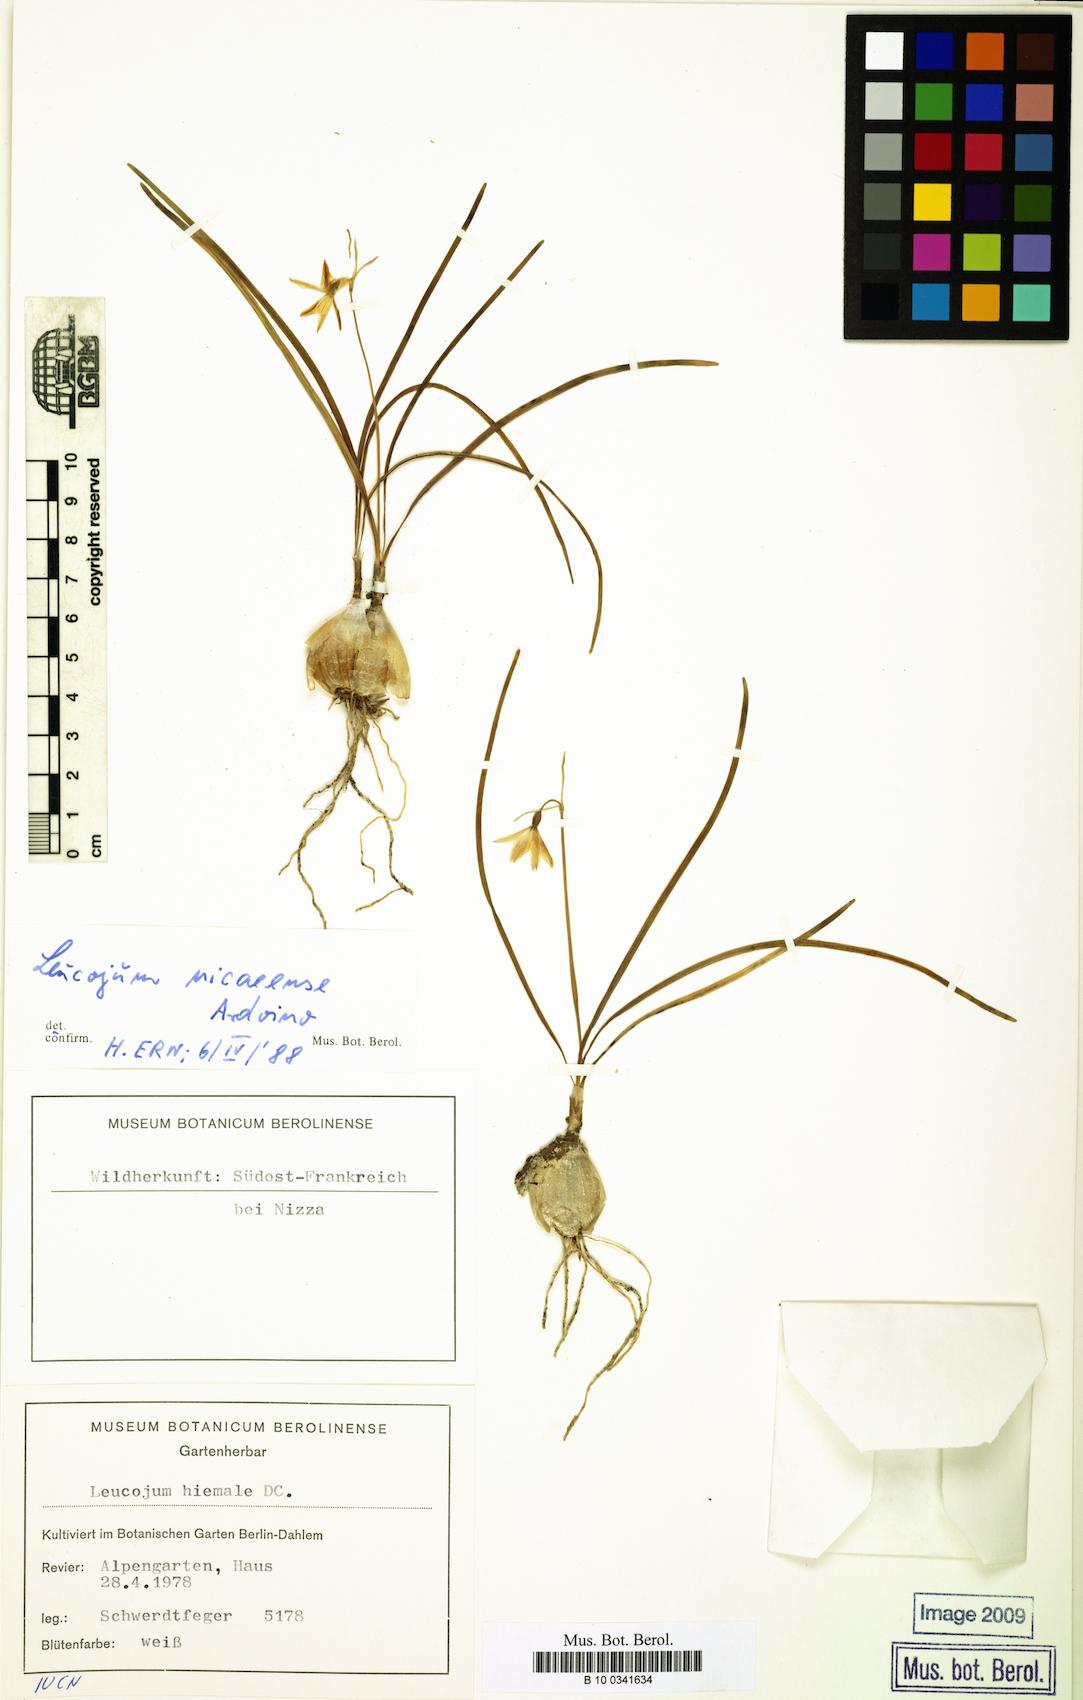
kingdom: Plantae
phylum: Tracheophyta
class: Liliopsida
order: Asparagales
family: Amaryllidaceae
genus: Acis
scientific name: Acis nicaeensis
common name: French snowflake
